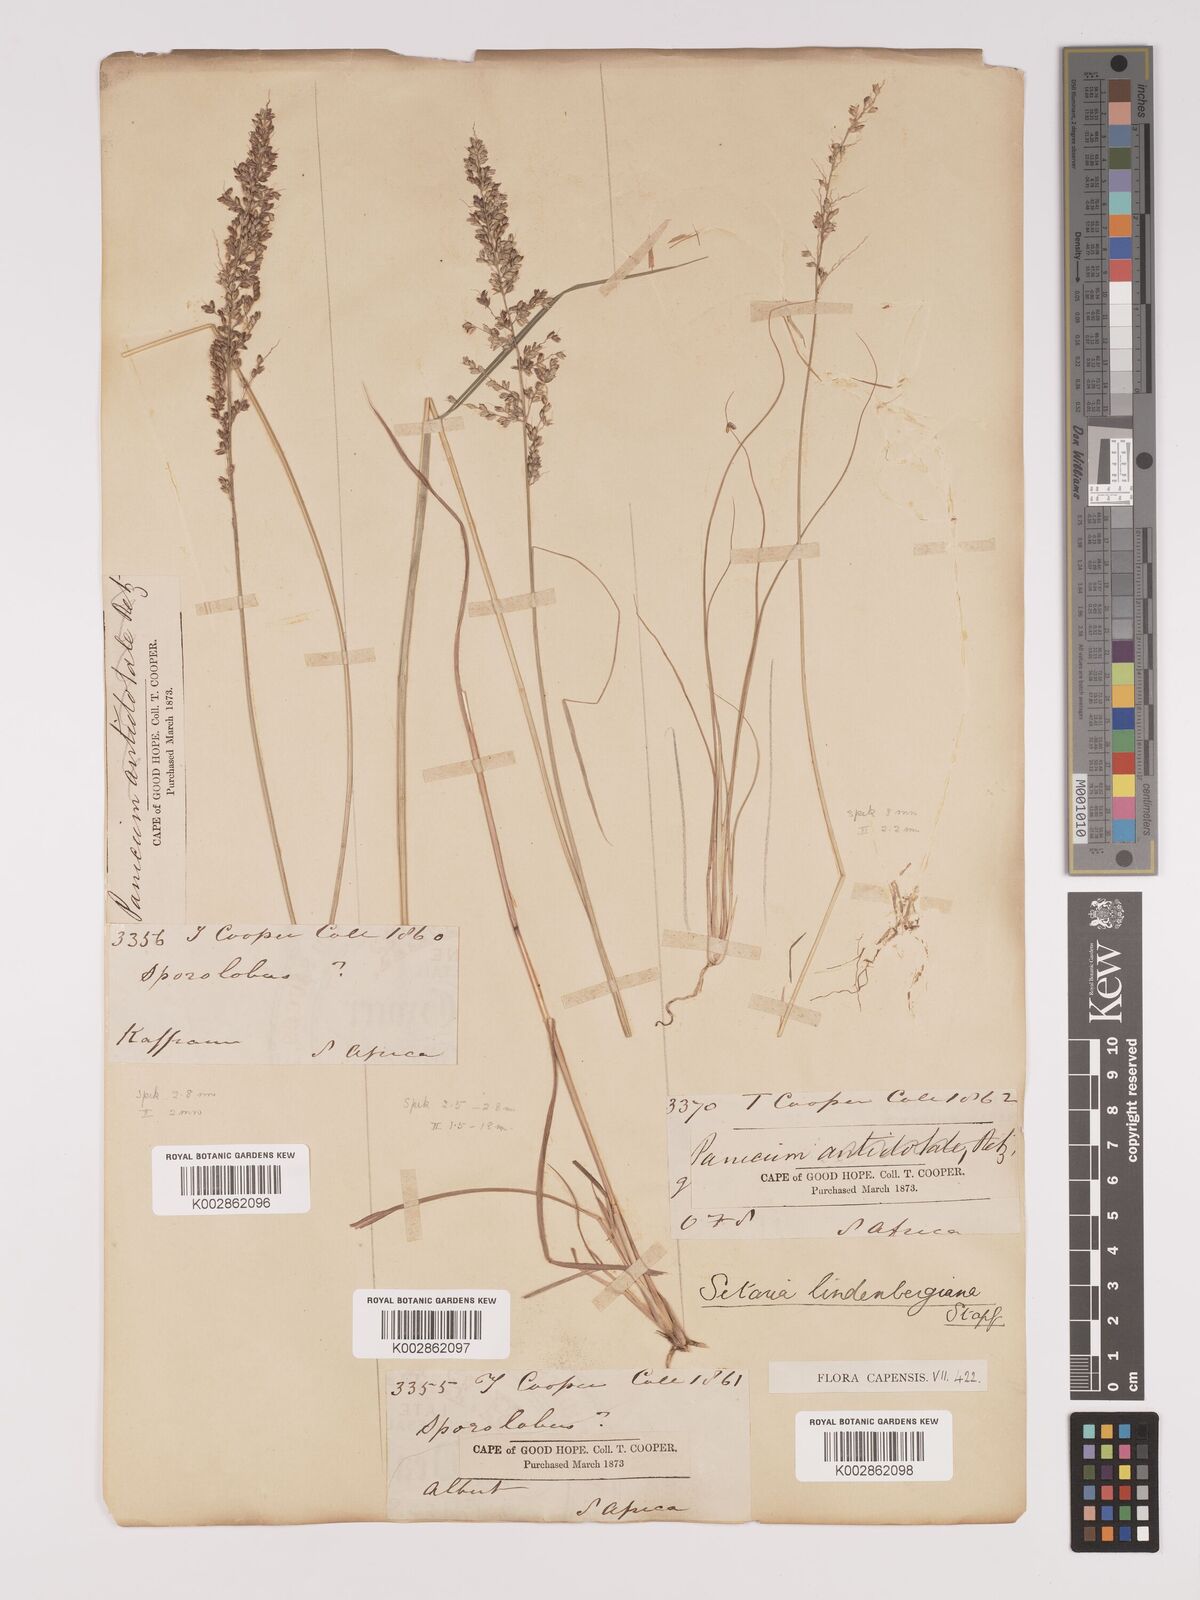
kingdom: Plantae
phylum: Tracheophyta
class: Liliopsida
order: Poales
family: Poaceae
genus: Setaria
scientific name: Setaria lindenbergiana
